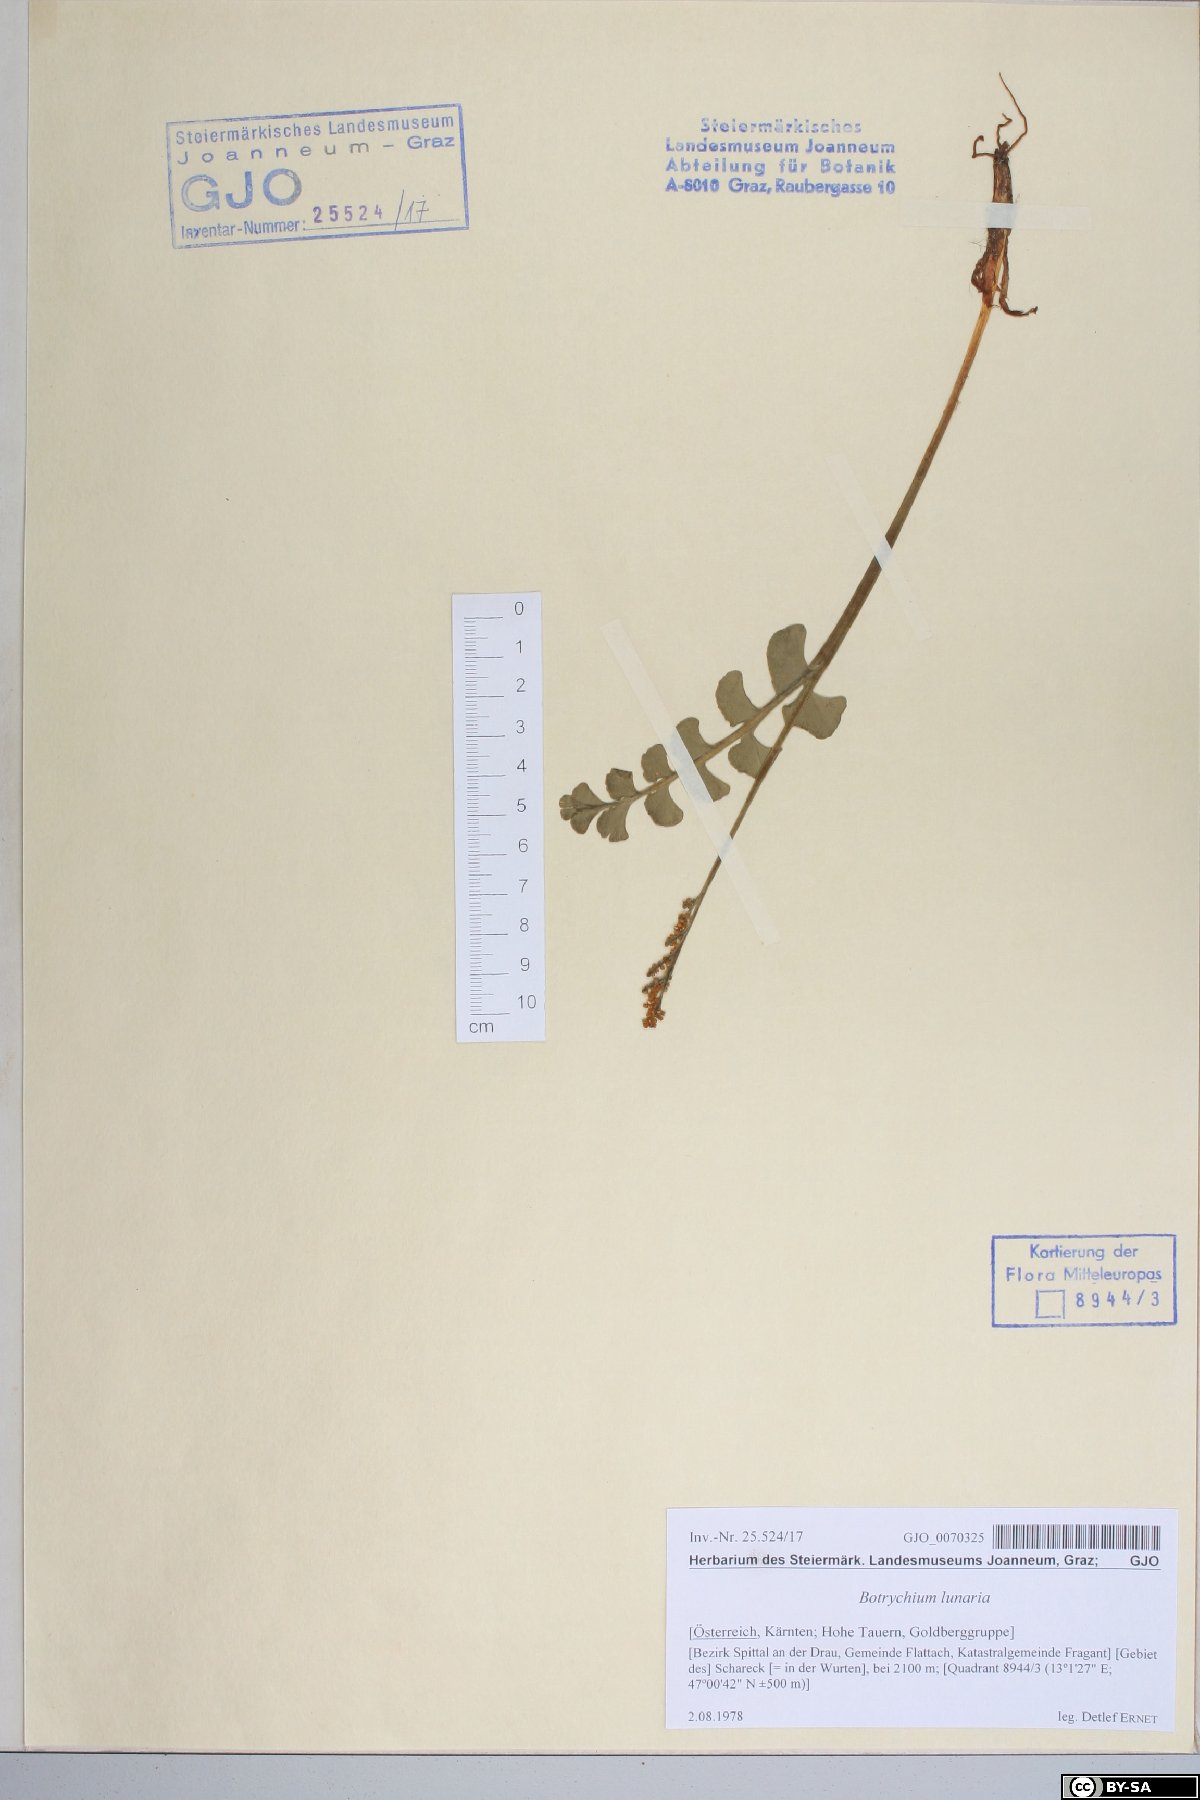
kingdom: Plantae
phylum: Tracheophyta
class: Polypodiopsida
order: Ophioglossales
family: Ophioglossaceae
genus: Botrychium
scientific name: Botrychium lunaria
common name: Moonwort
